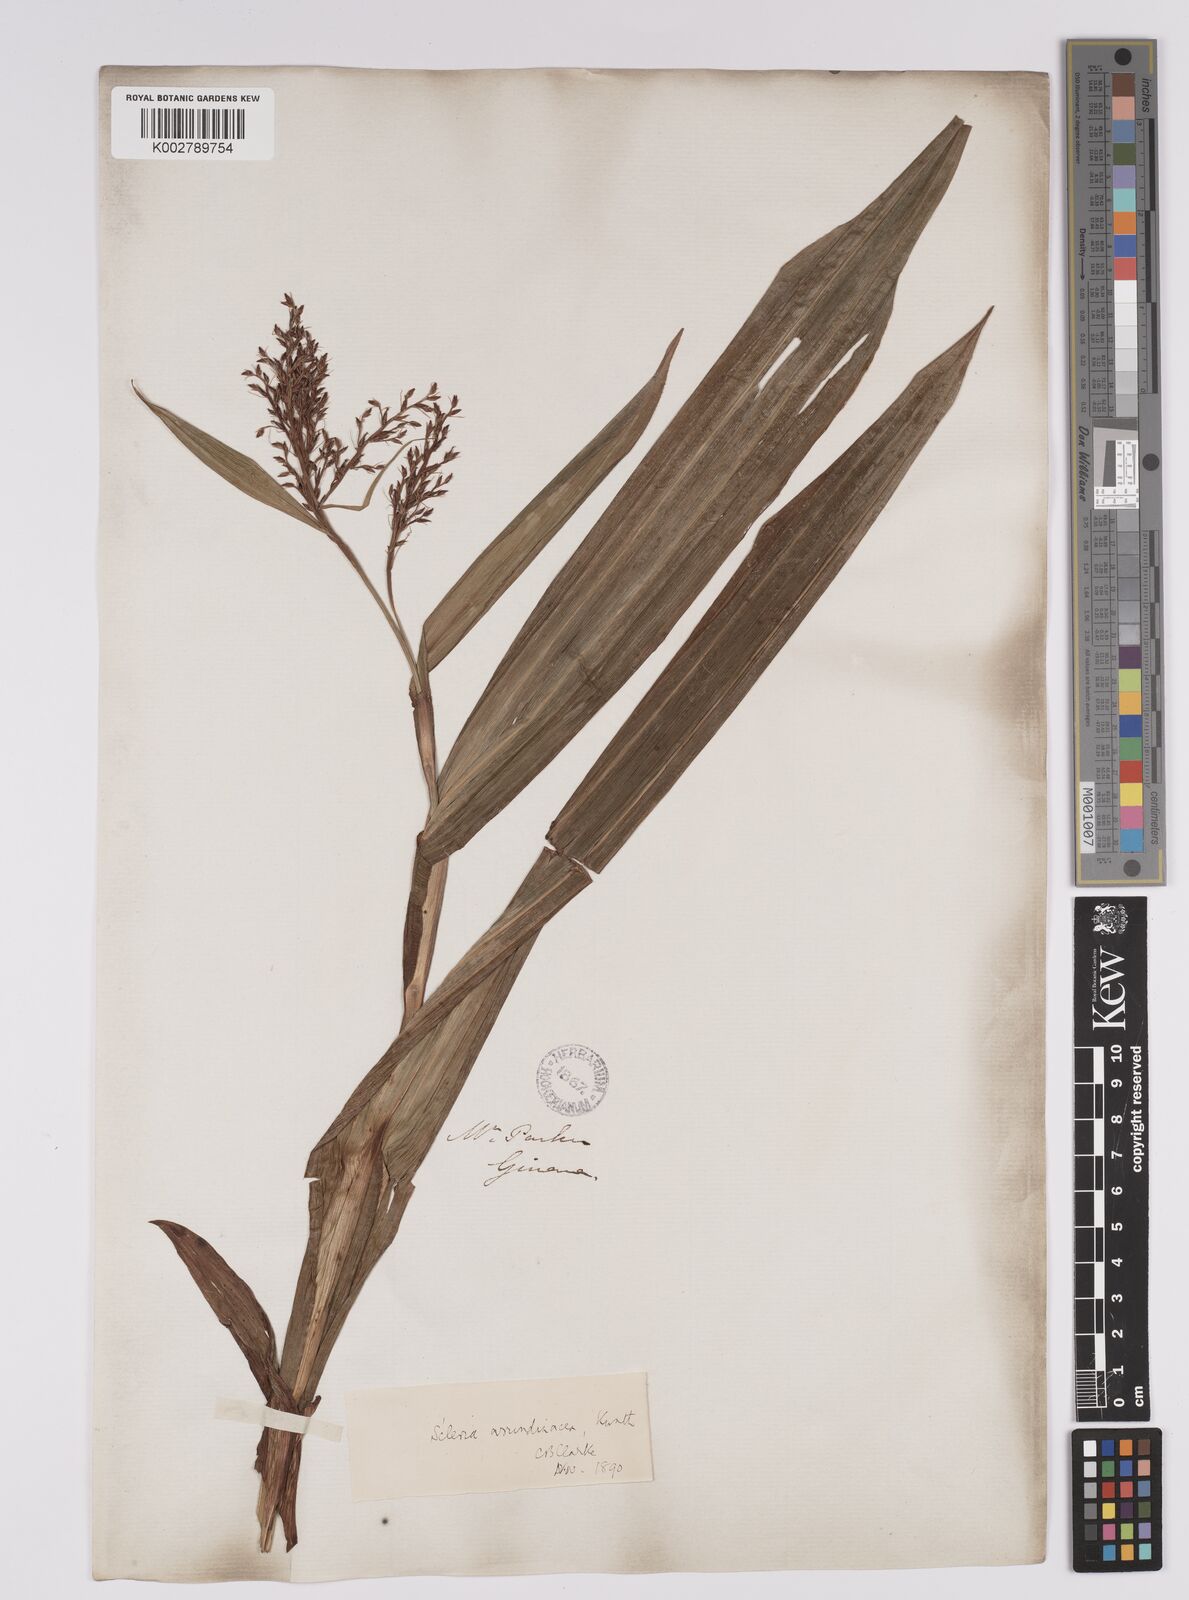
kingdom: Plantae
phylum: Tracheophyta
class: Liliopsida
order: Poales
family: Cyperaceae
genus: Scleria
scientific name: Scleria latifolia
